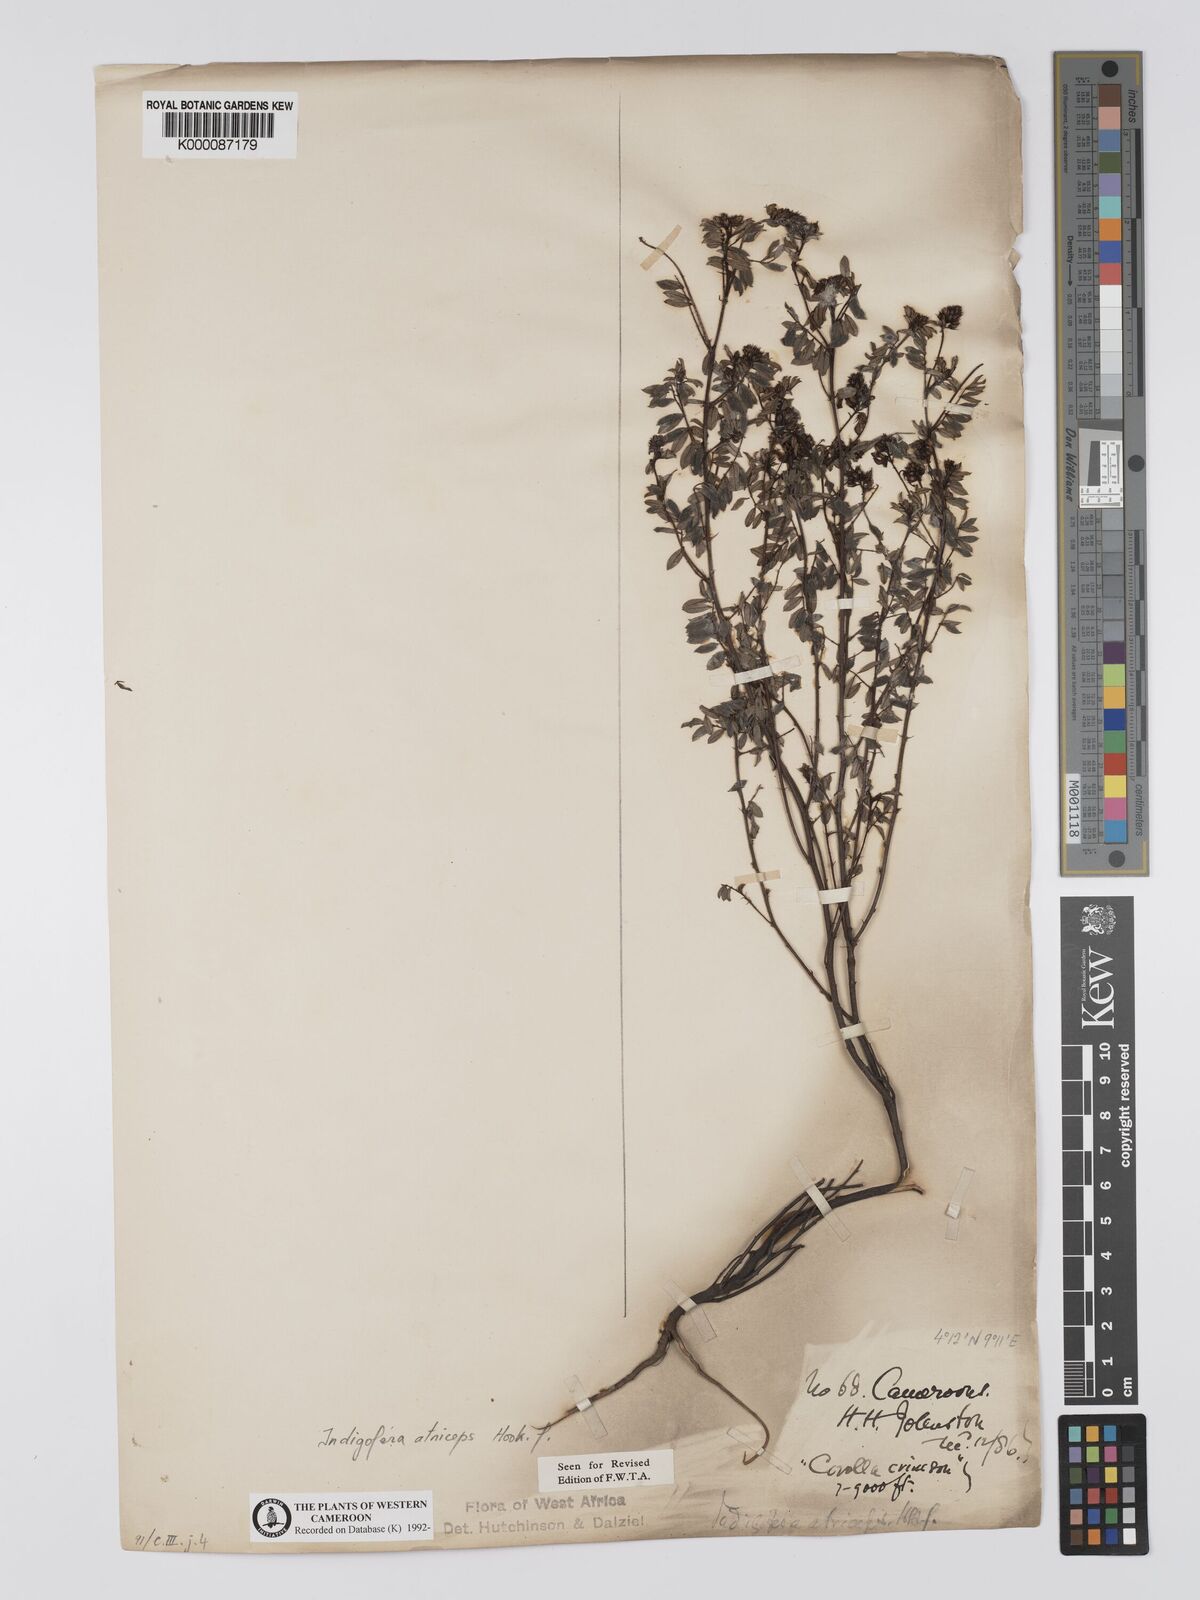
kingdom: Plantae
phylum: Tracheophyta
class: Magnoliopsida
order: Fabales
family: Fabaceae
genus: Indigofera
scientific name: Indigofera atriceps
